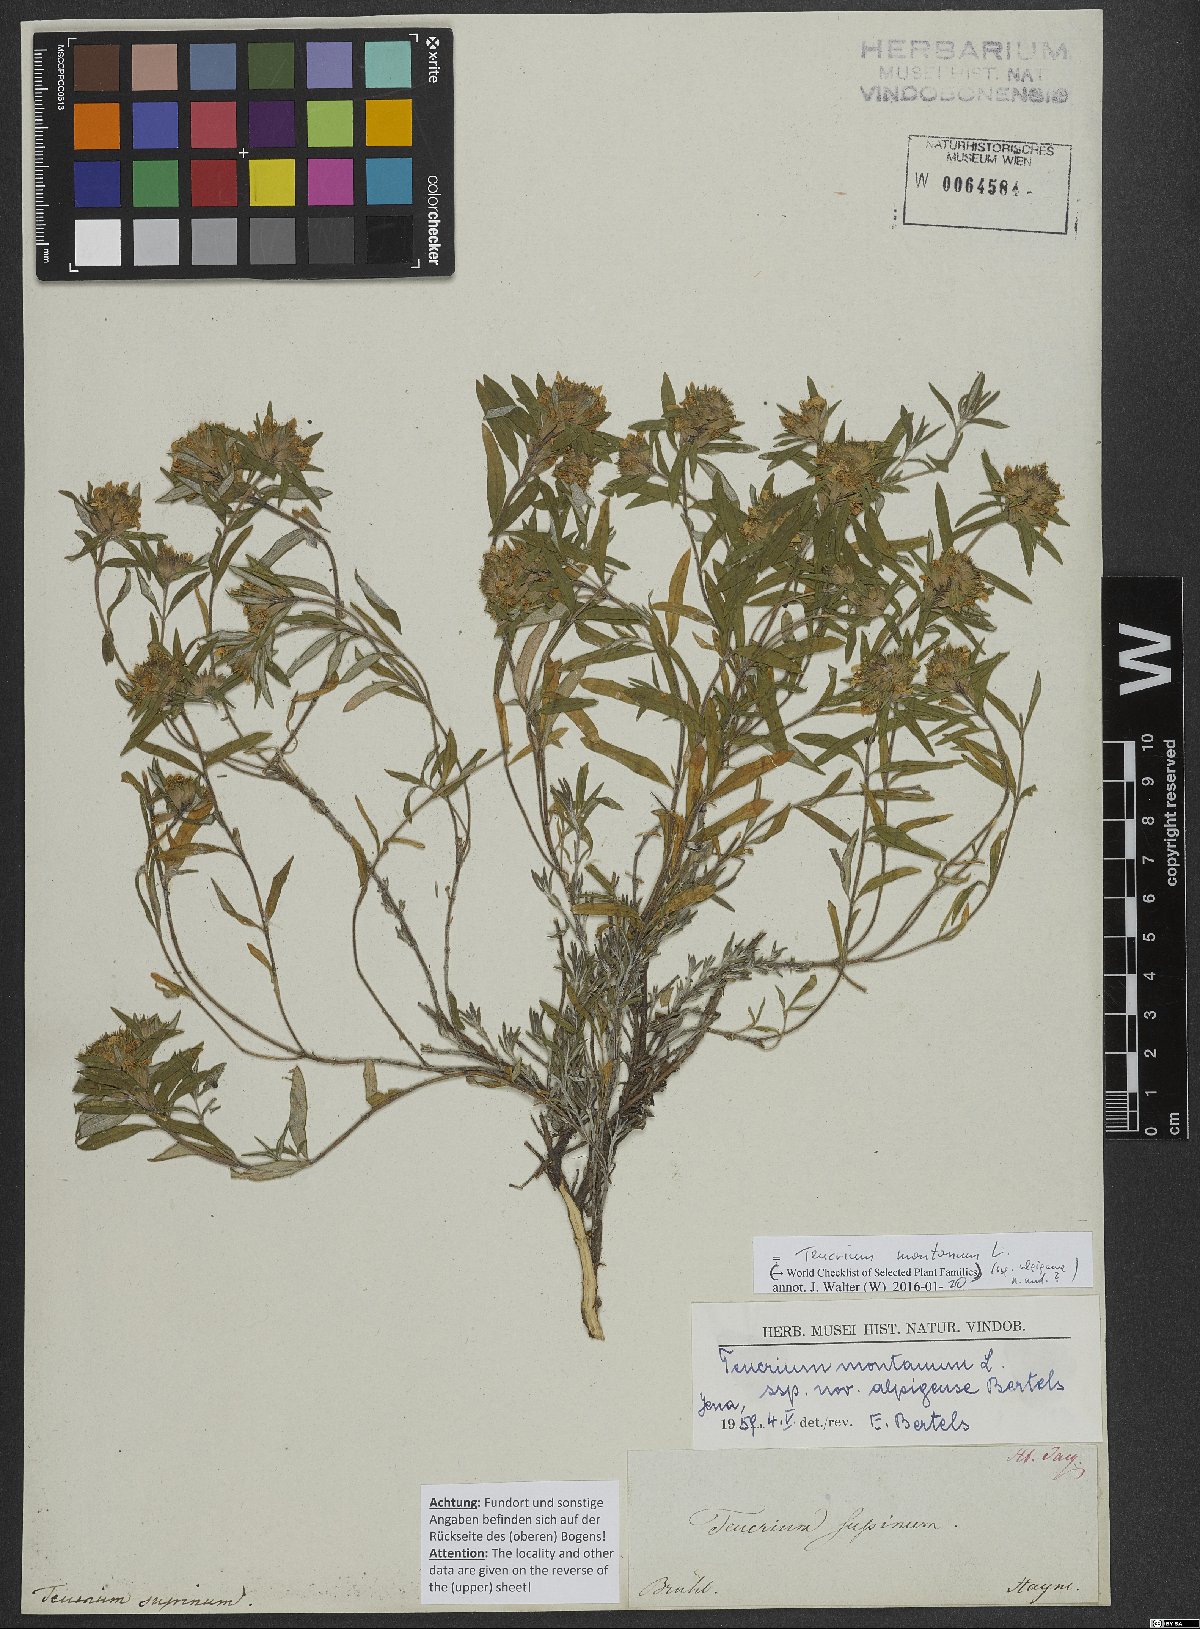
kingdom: Plantae
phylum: Tracheophyta
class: Magnoliopsida
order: Lamiales
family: Lamiaceae
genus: Teucrium
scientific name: Teucrium montanum
